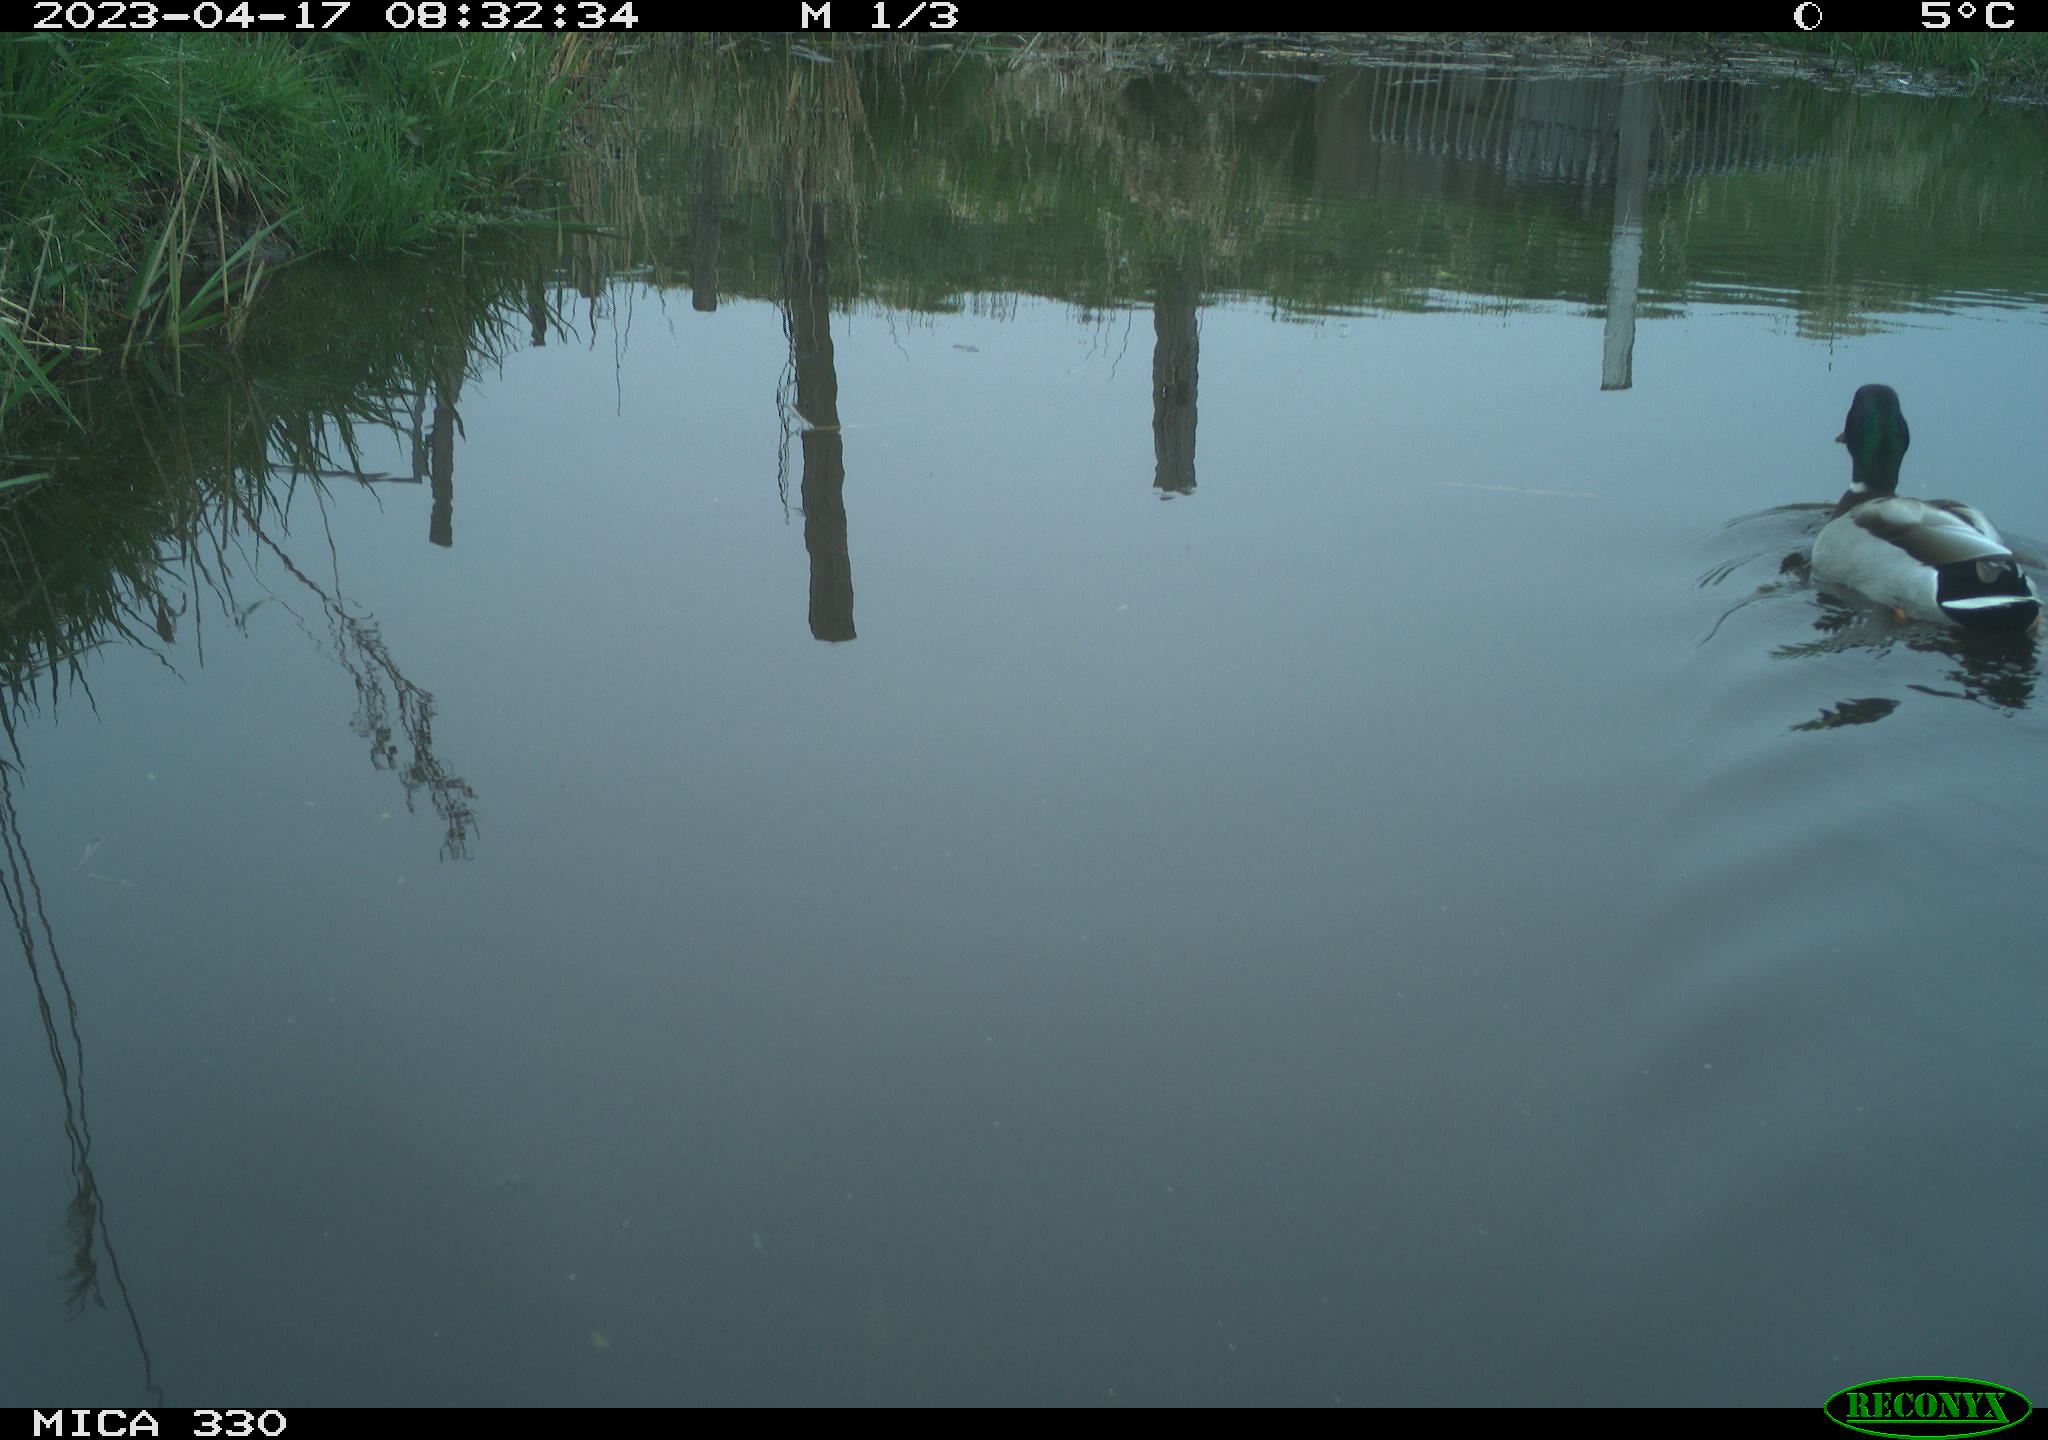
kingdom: Animalia
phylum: Chordata
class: Aves
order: Anseriformes
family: Anatidae
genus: Anas
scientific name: Anas
